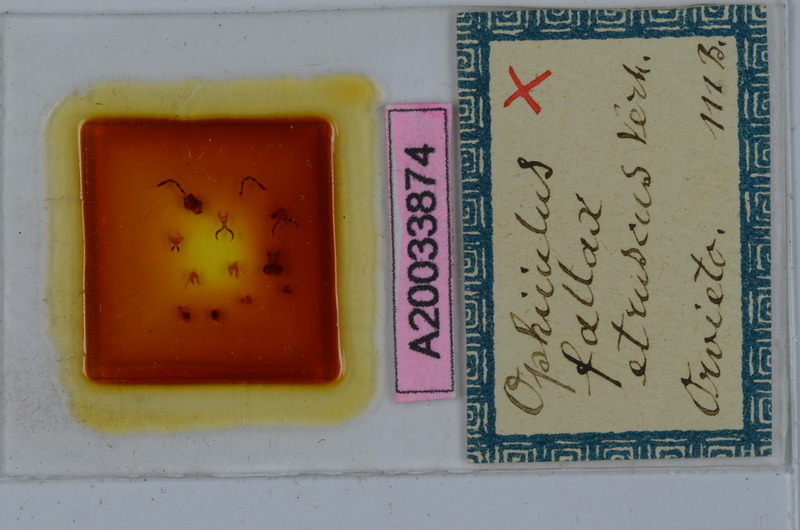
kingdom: Animalia
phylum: Arthropoda
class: Diplopoda
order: Julida
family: Julidae
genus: Ophyiulus
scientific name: Ophyiulus fallax
